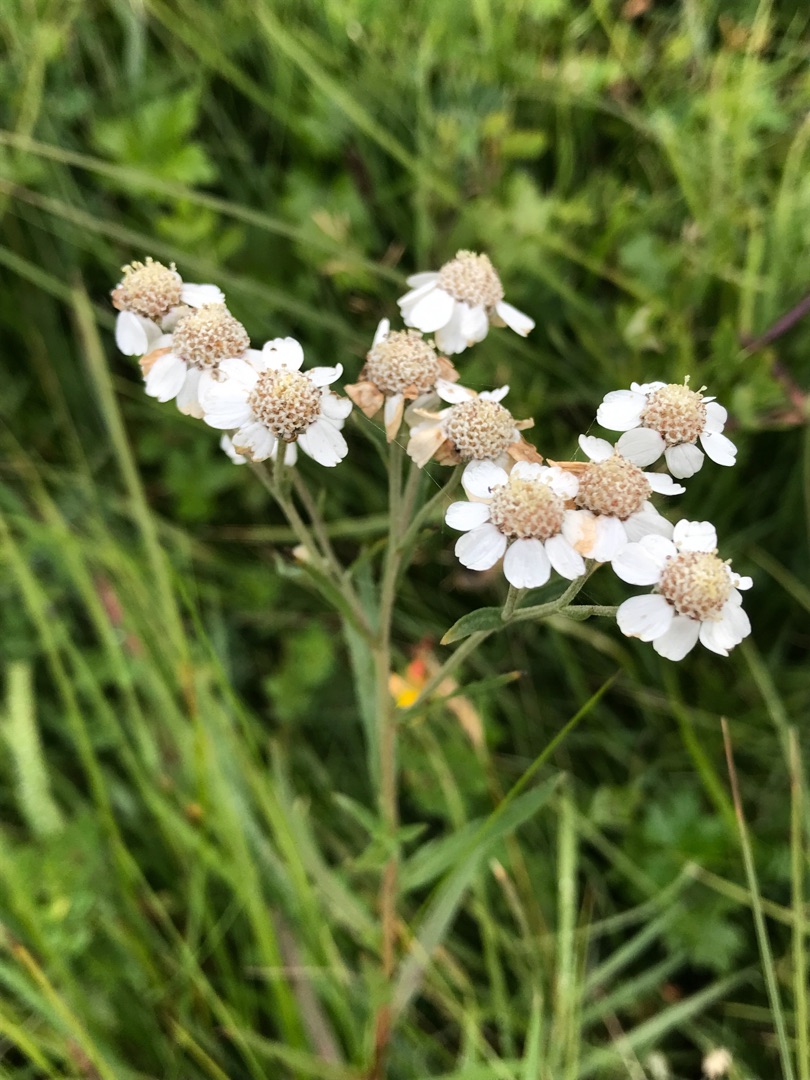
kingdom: Plantae
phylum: Tracheophyta
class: Magnoliopsida
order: Asterales
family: Asteraceae
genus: Achillea
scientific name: Achillea ptarmica
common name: Nyse-røllike
